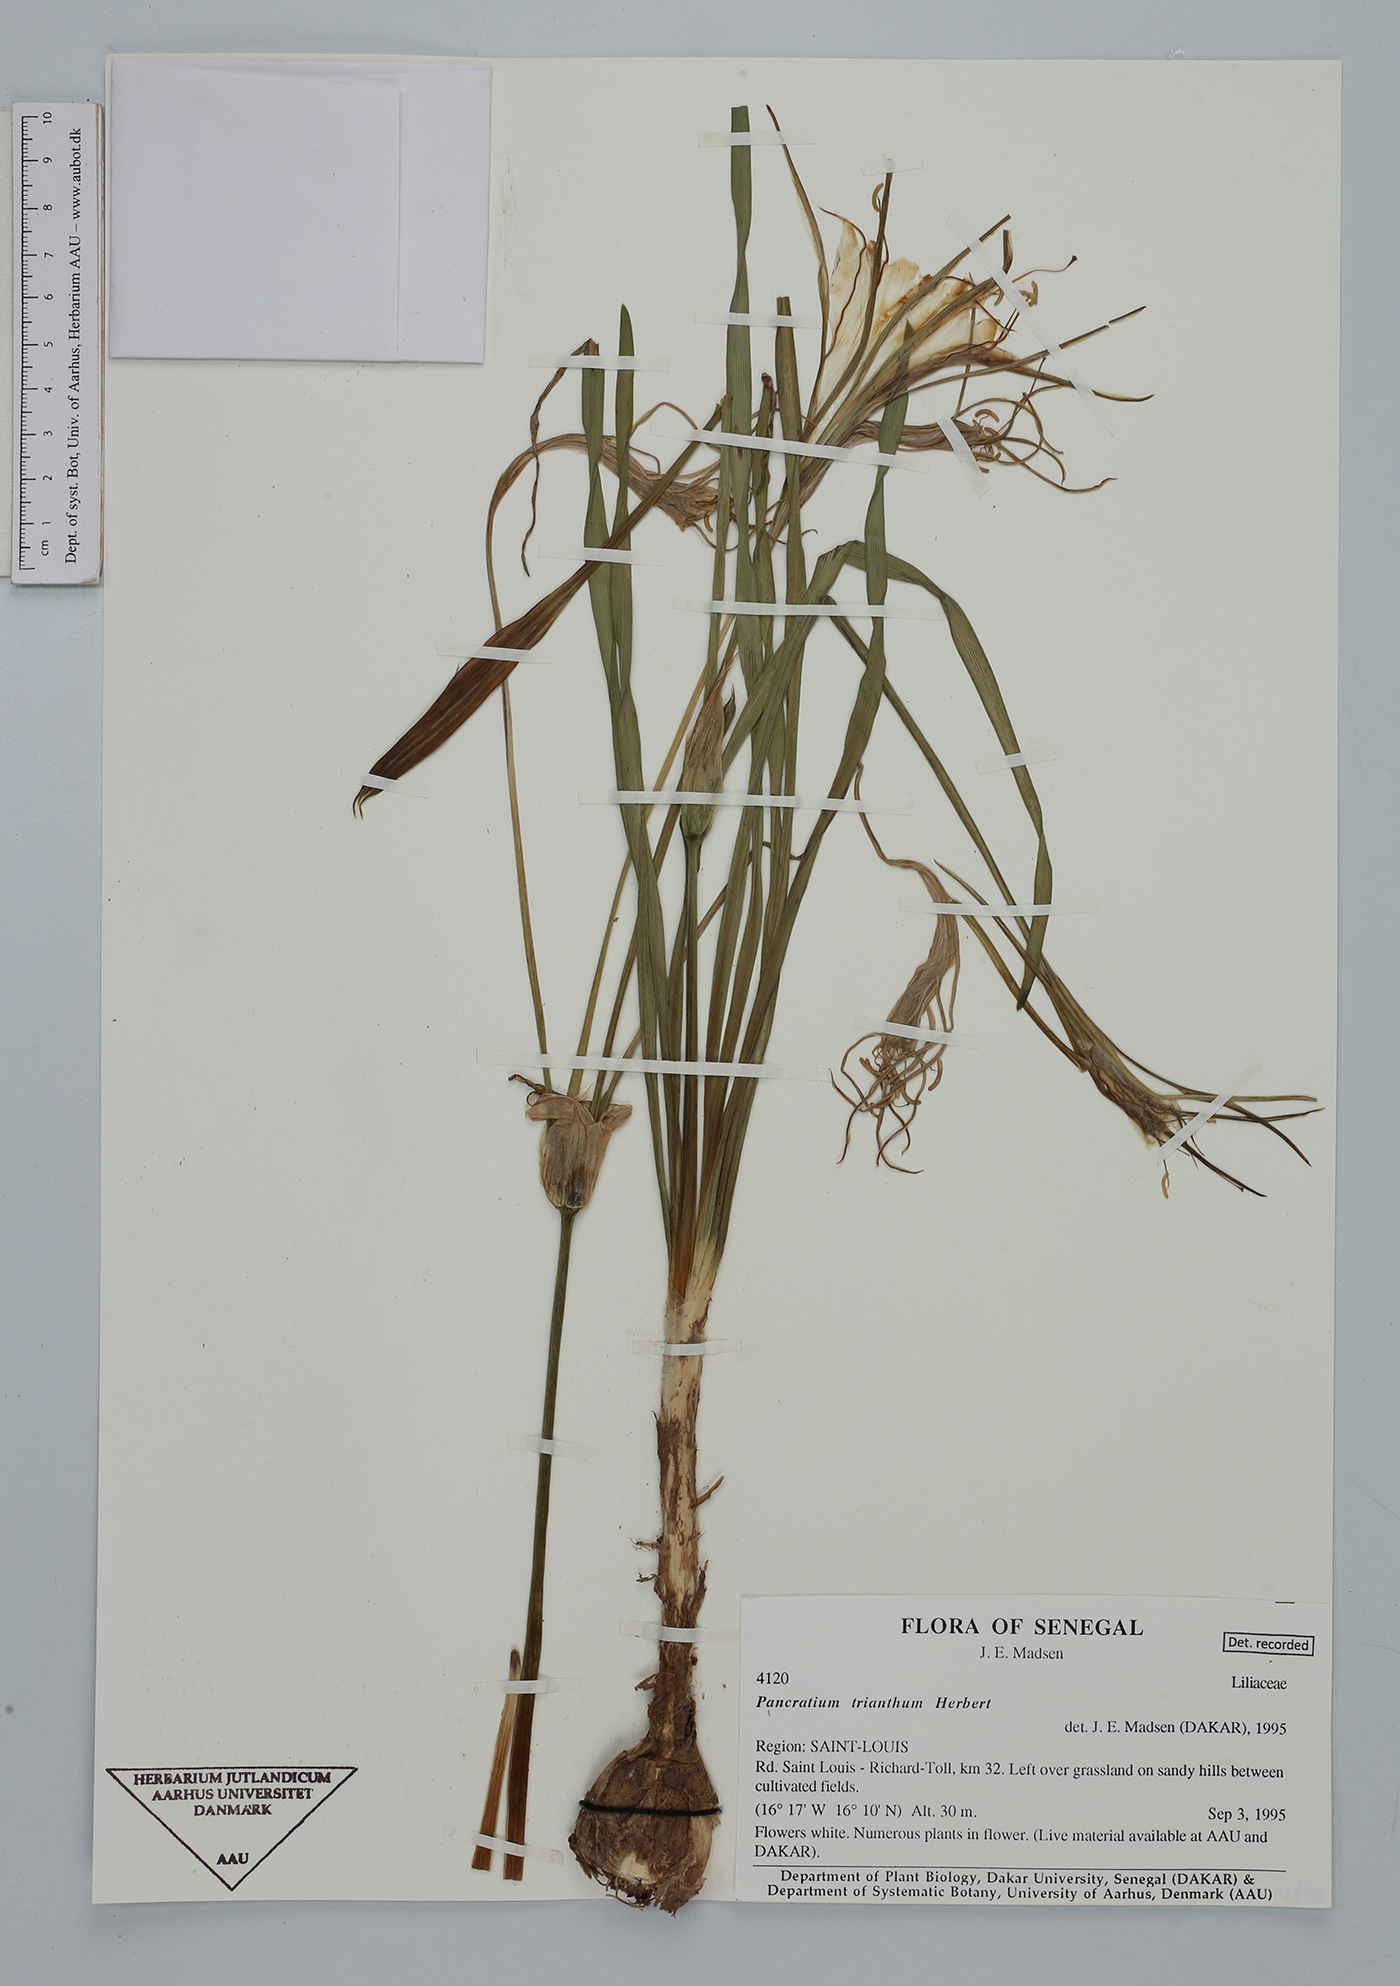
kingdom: Plantae
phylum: Tracheophyta
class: Liliopsida
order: Asparagales
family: Amaryllidaceae
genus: Pancratium
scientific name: Pancratium trianthum
